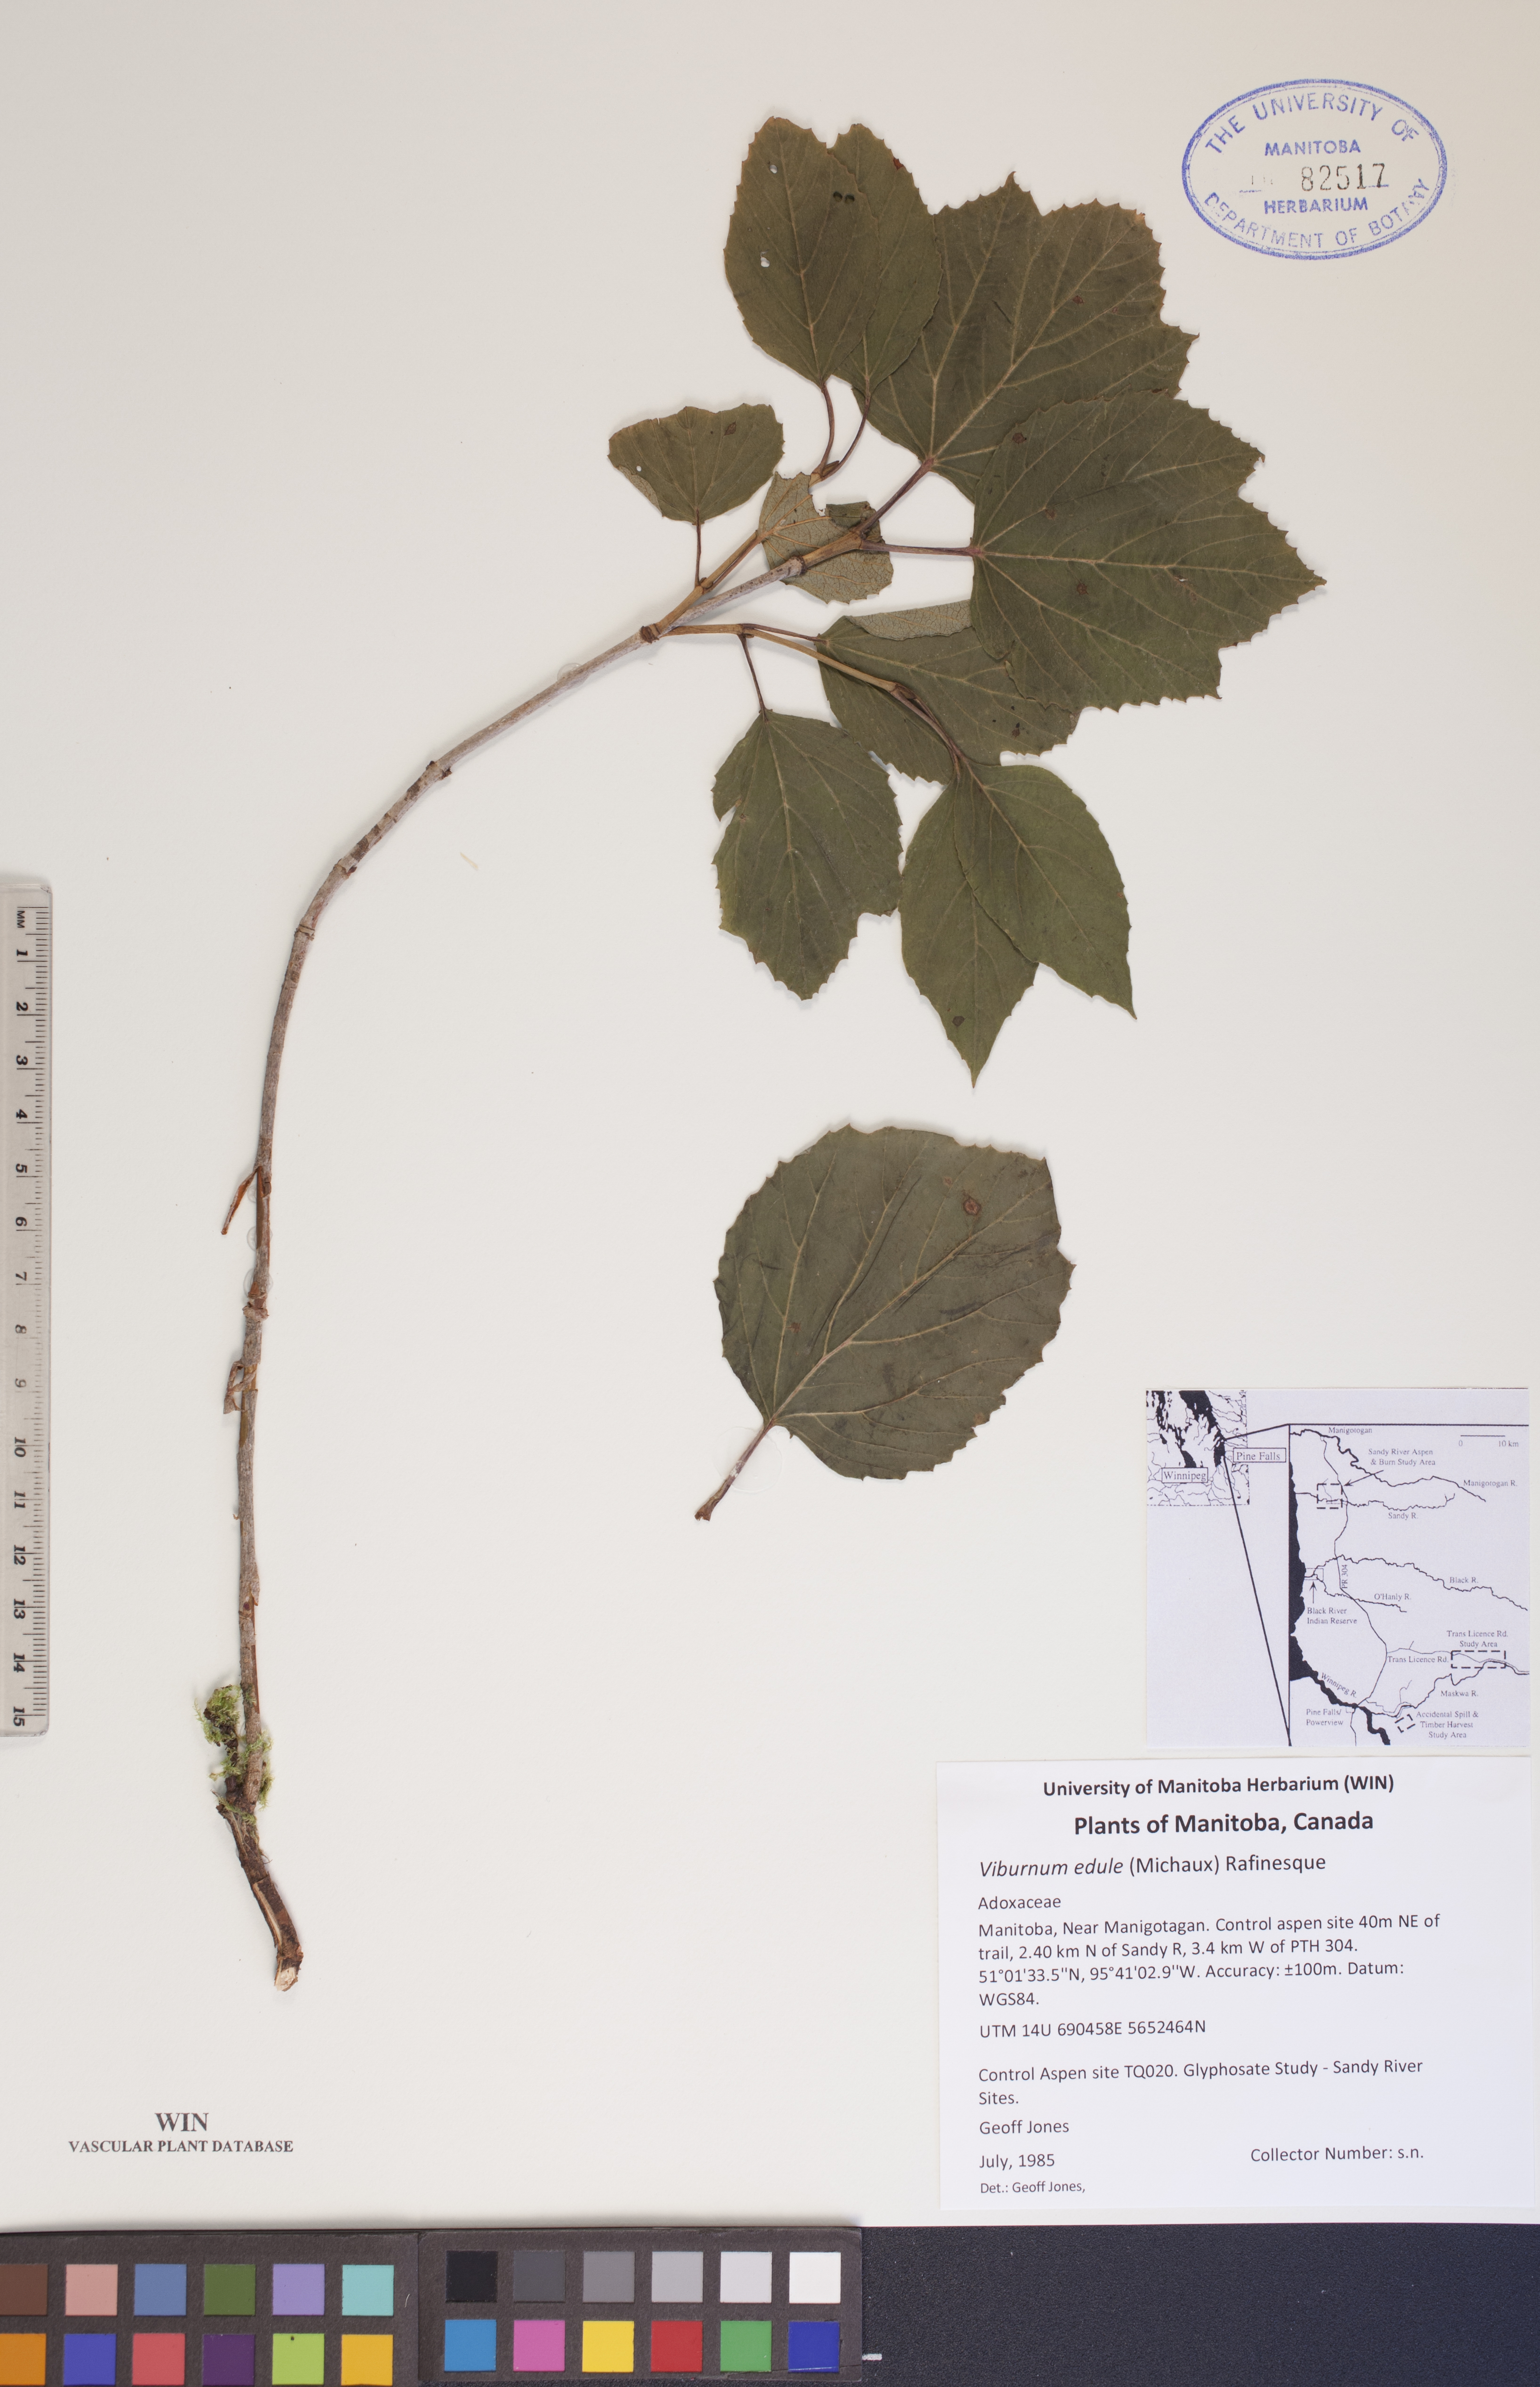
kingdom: Plantae
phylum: Tracheophyta
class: Magnoliopsida
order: Dipsacales
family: Viburnaceae
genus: Viburnum
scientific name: Viburnum edule
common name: Mooseberry
